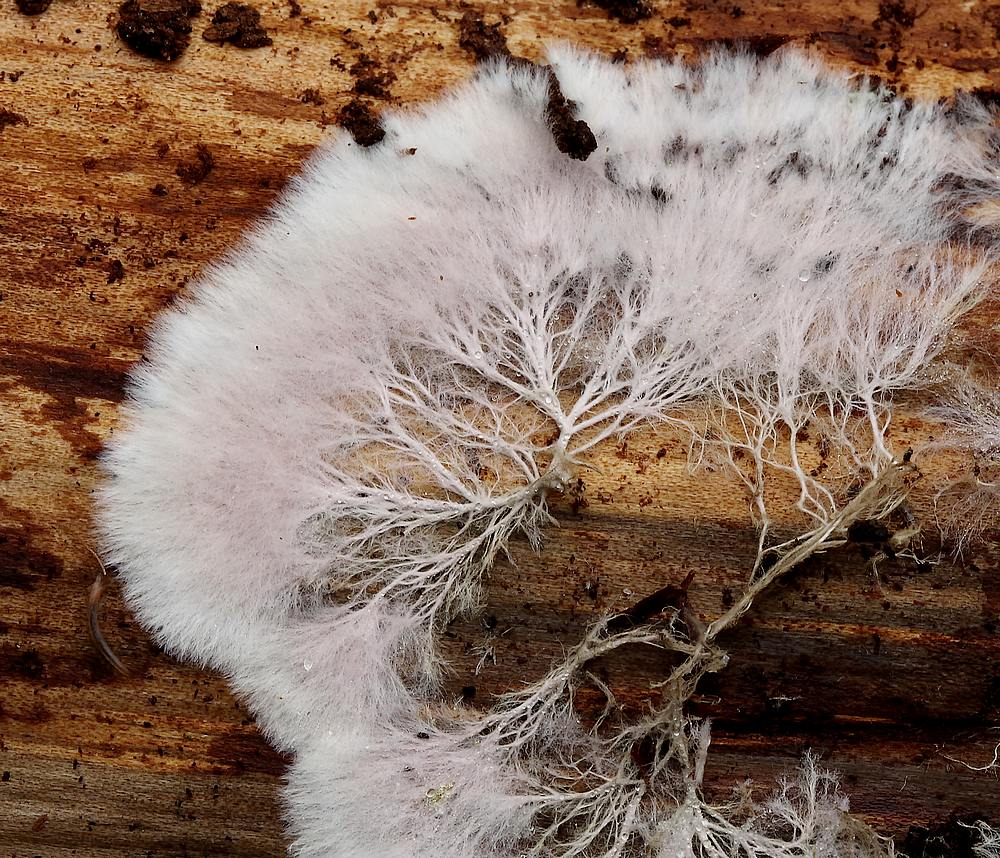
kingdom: Fungi
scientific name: Fungi
